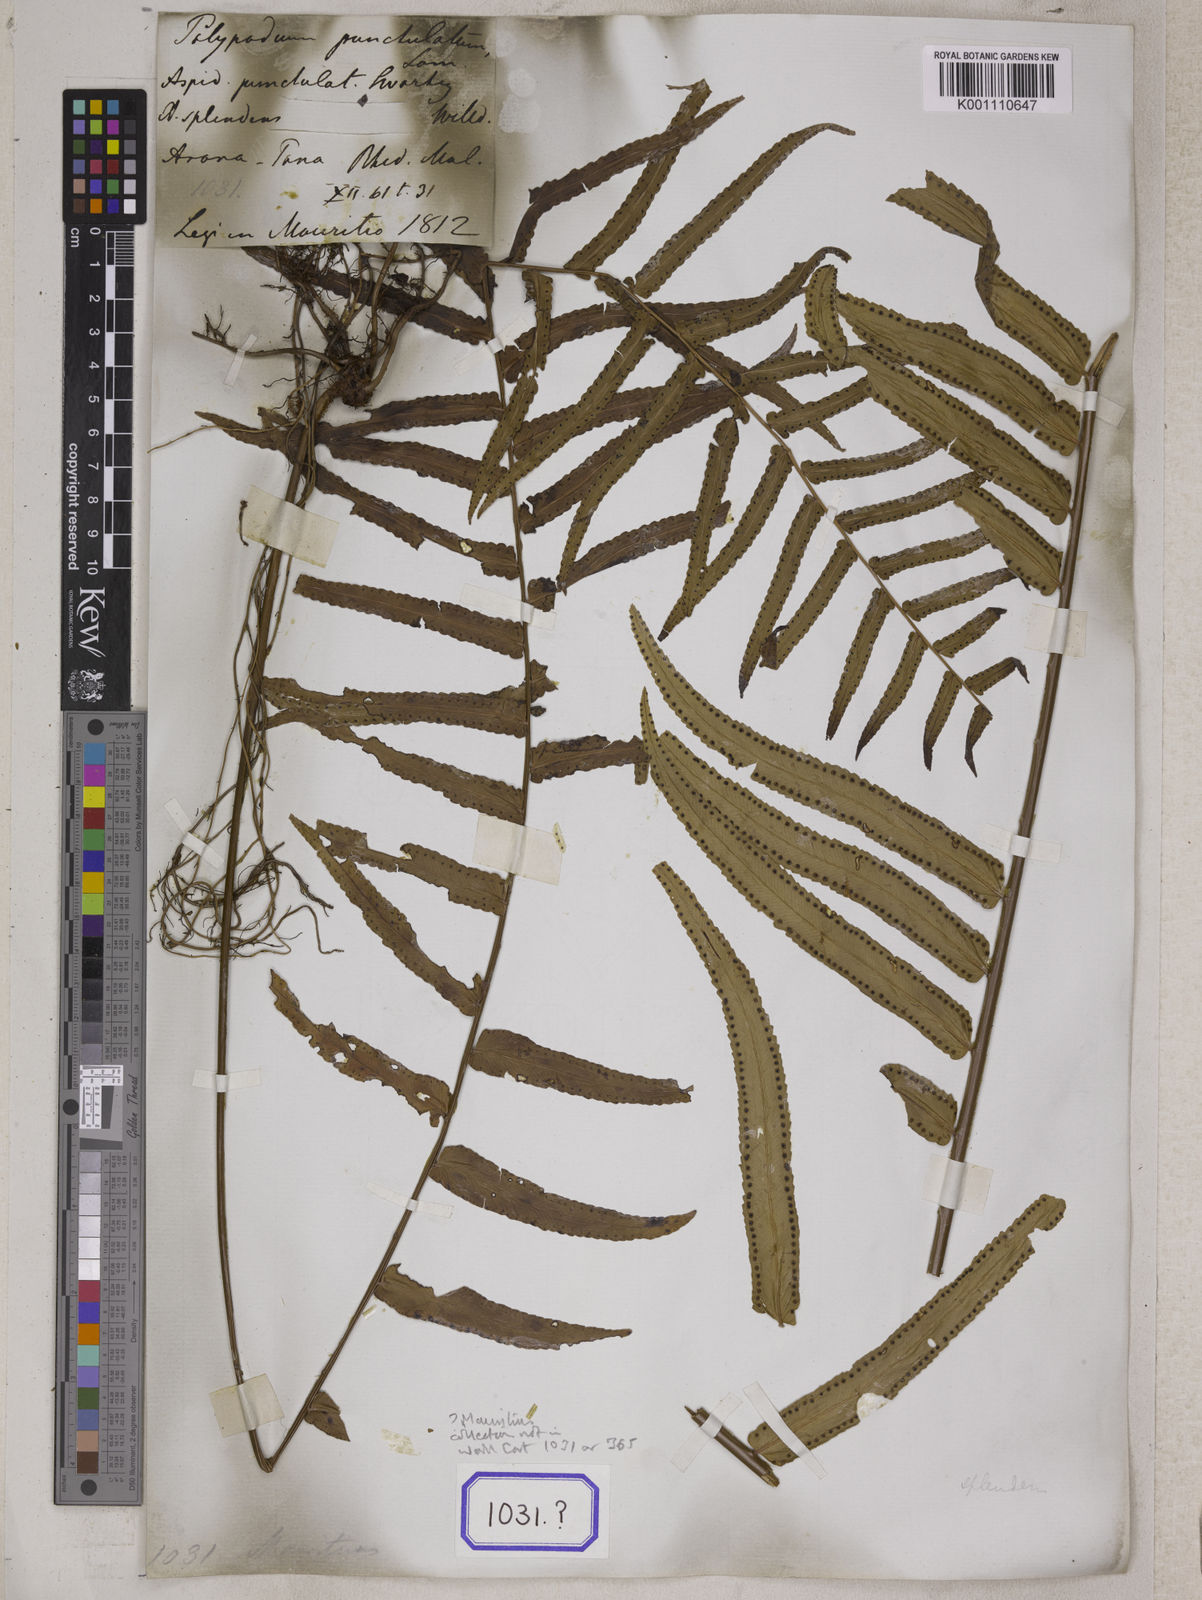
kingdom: Plantae
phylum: Tracheophyta
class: Polypodiopsida
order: Polypodiales
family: Nephrolepidaceae
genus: Nephrolepis
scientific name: Nephrolepis exaltata
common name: Sword fern
